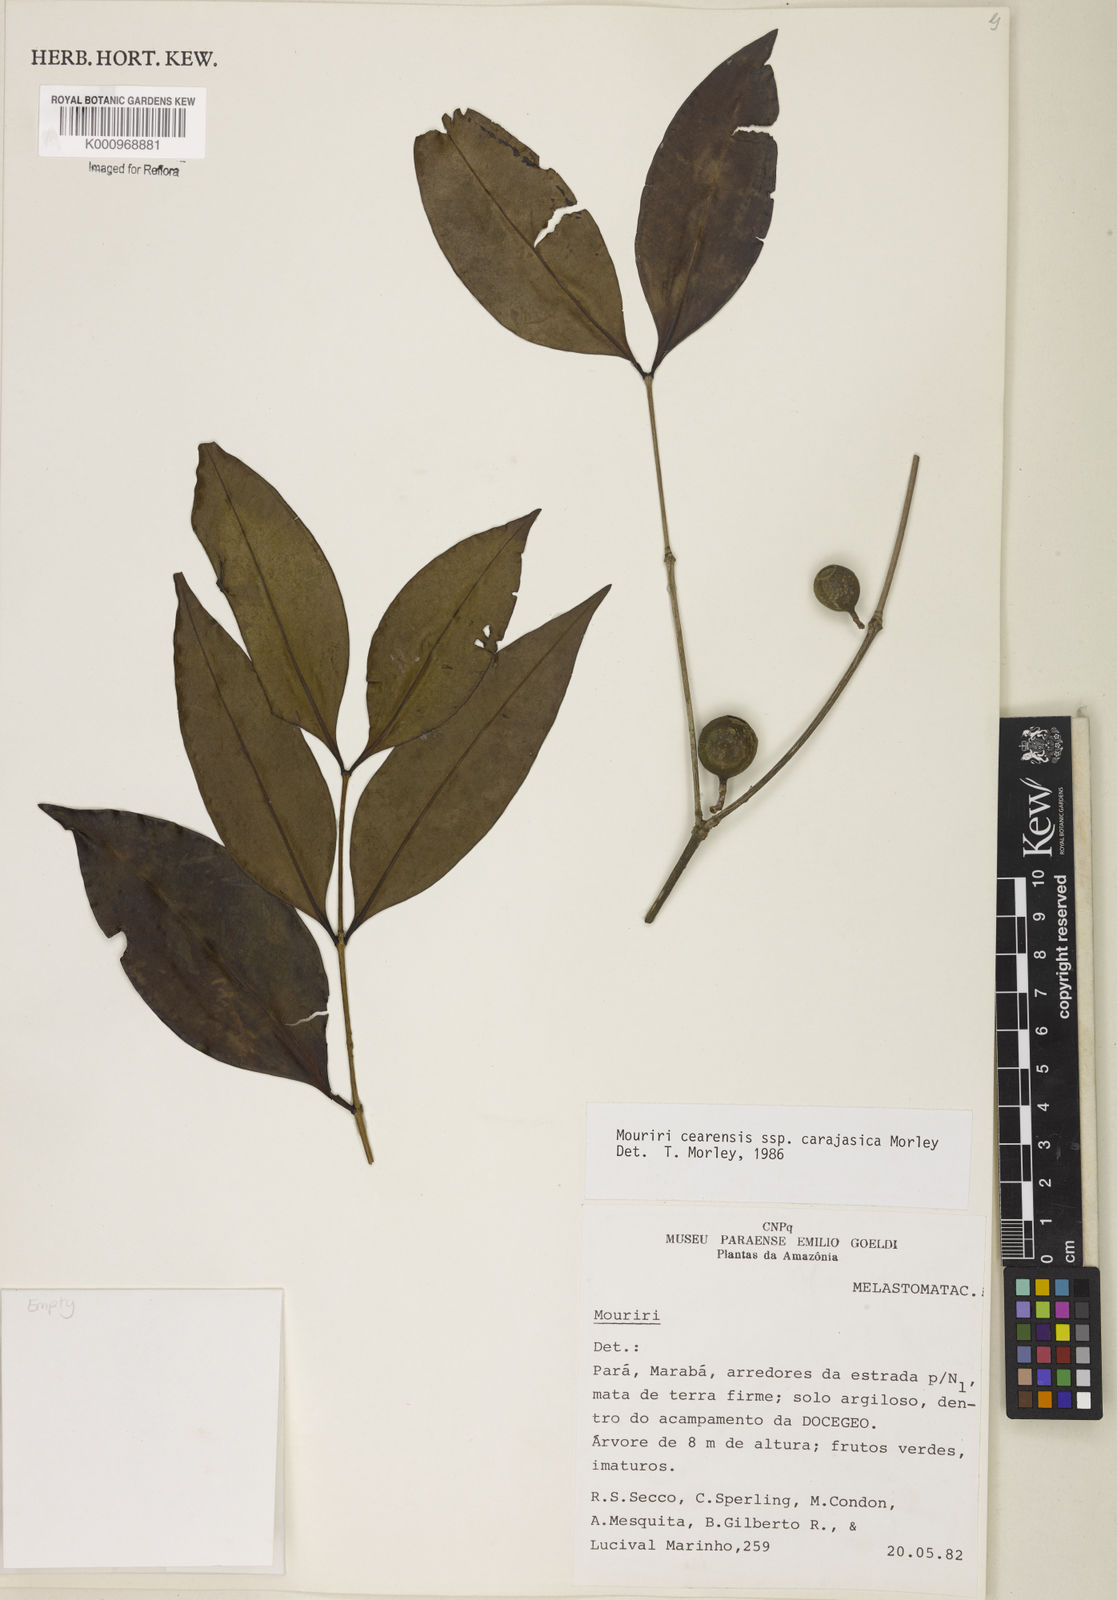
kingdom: Plantae
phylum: Tracheophyta
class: Magnoliopsida
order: Myrtales
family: Melastomataceae
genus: Mouriri
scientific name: Mouriri cearensis
